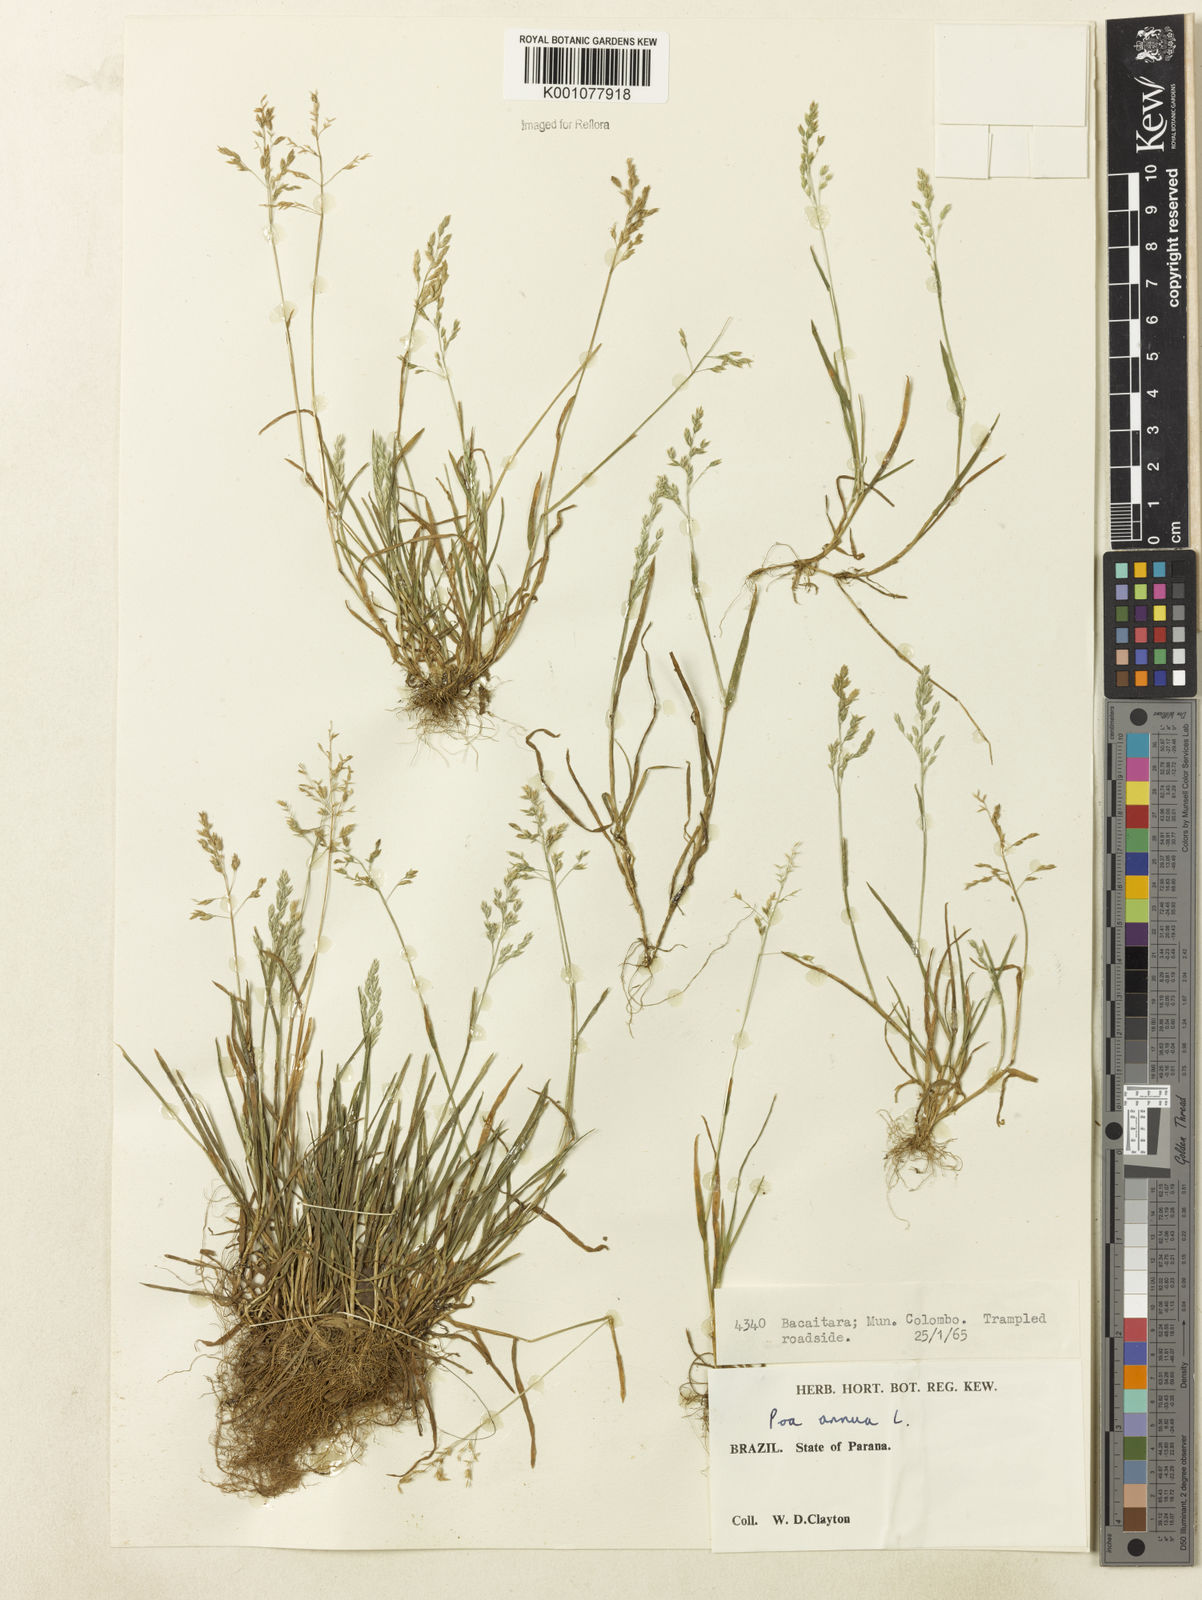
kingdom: Plantae
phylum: Tracheophyta
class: Liliopsida
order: Poales
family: Poaceae
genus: Poa
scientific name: Poa annua
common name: Annual bluegrass
